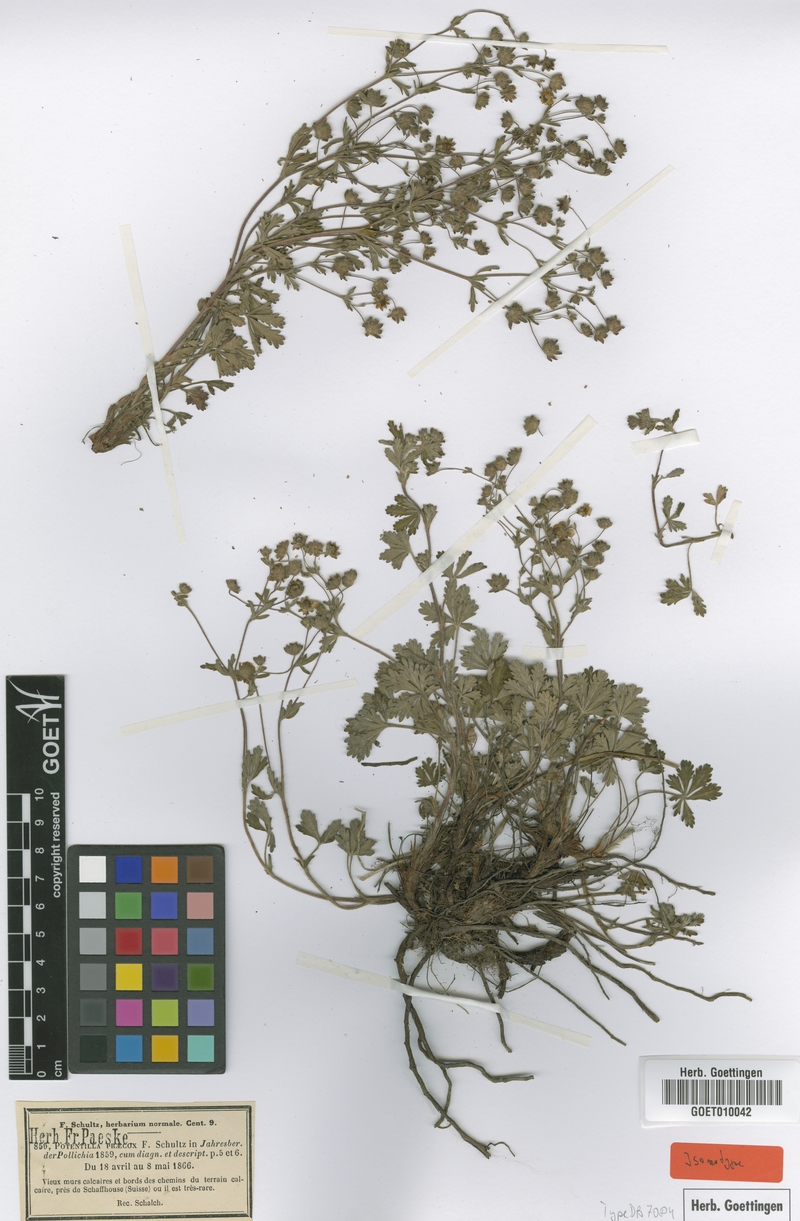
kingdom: Plantae
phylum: Tracheophyta
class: Magnoliopsida
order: Rosales
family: Rosaceae
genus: Potentilla
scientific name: Potentilla praecox
